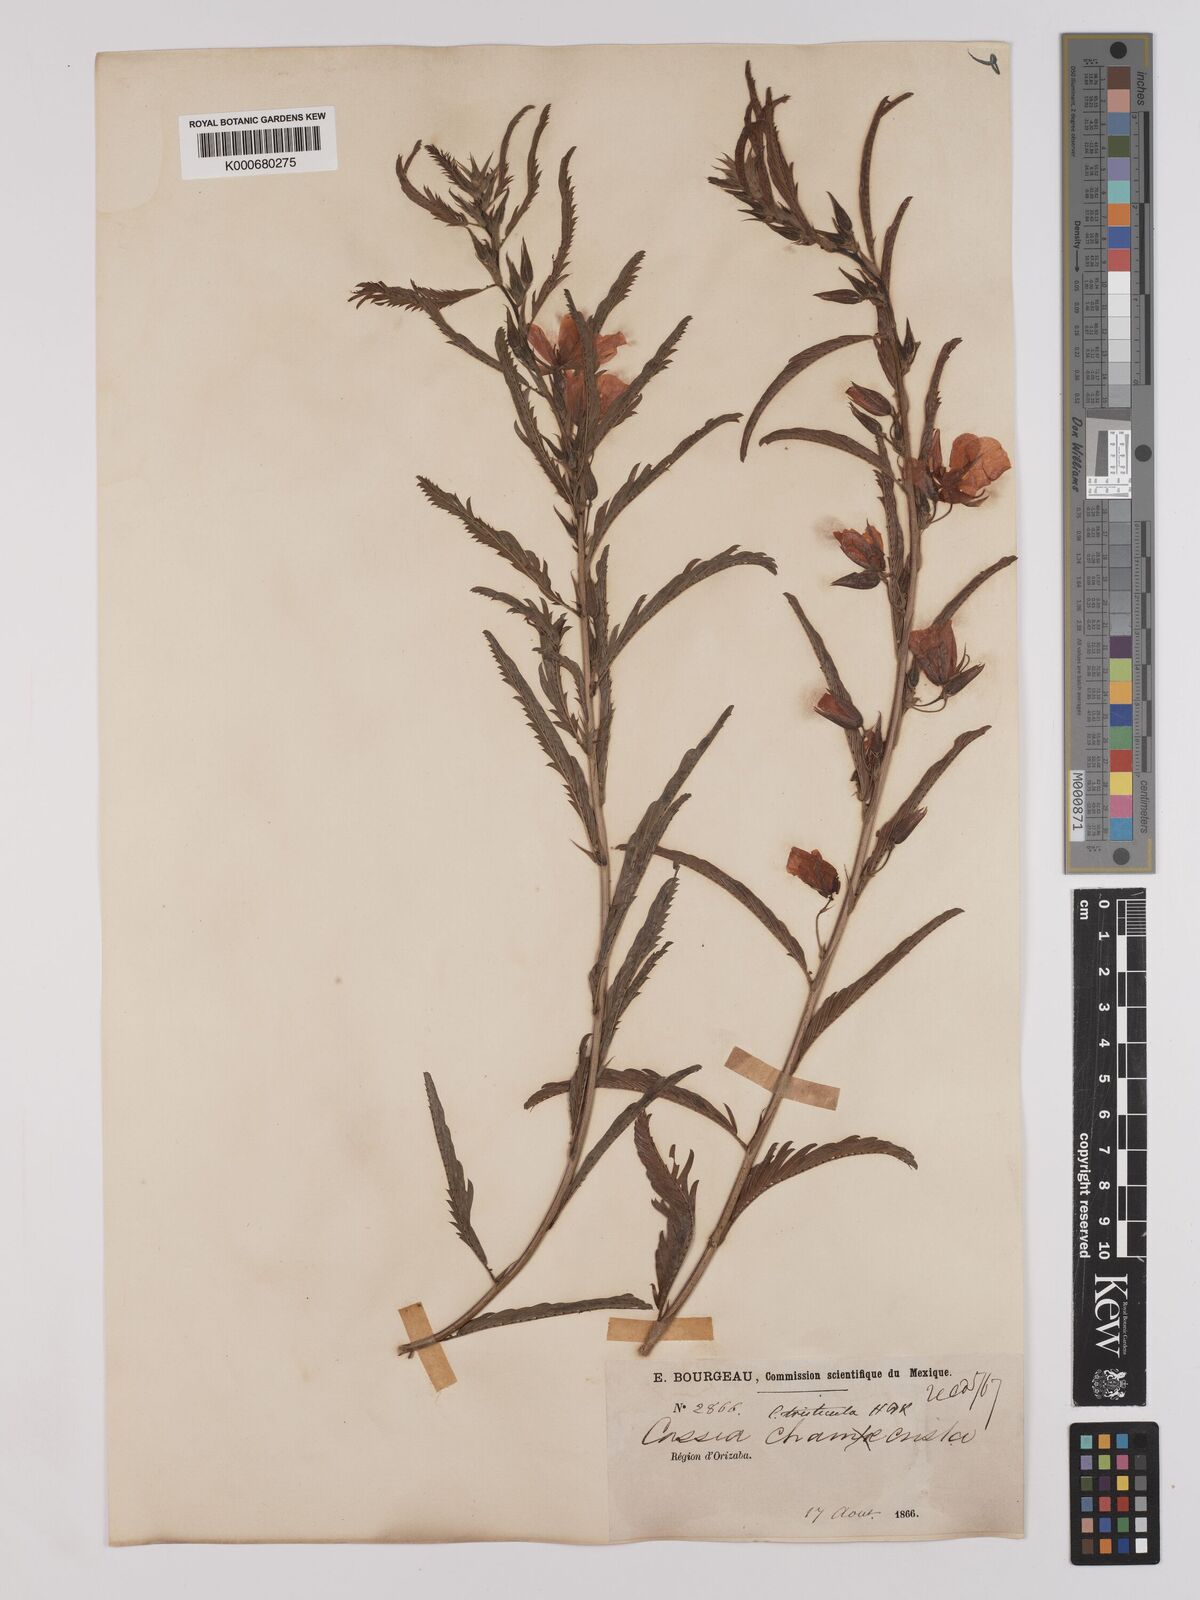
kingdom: Plantae
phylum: Tracheophyta
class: Magnoliopsida
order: Fabales
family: Fabaceae
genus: Chamaecrista
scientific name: Chamaecrista glandulosa
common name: Wild peas
